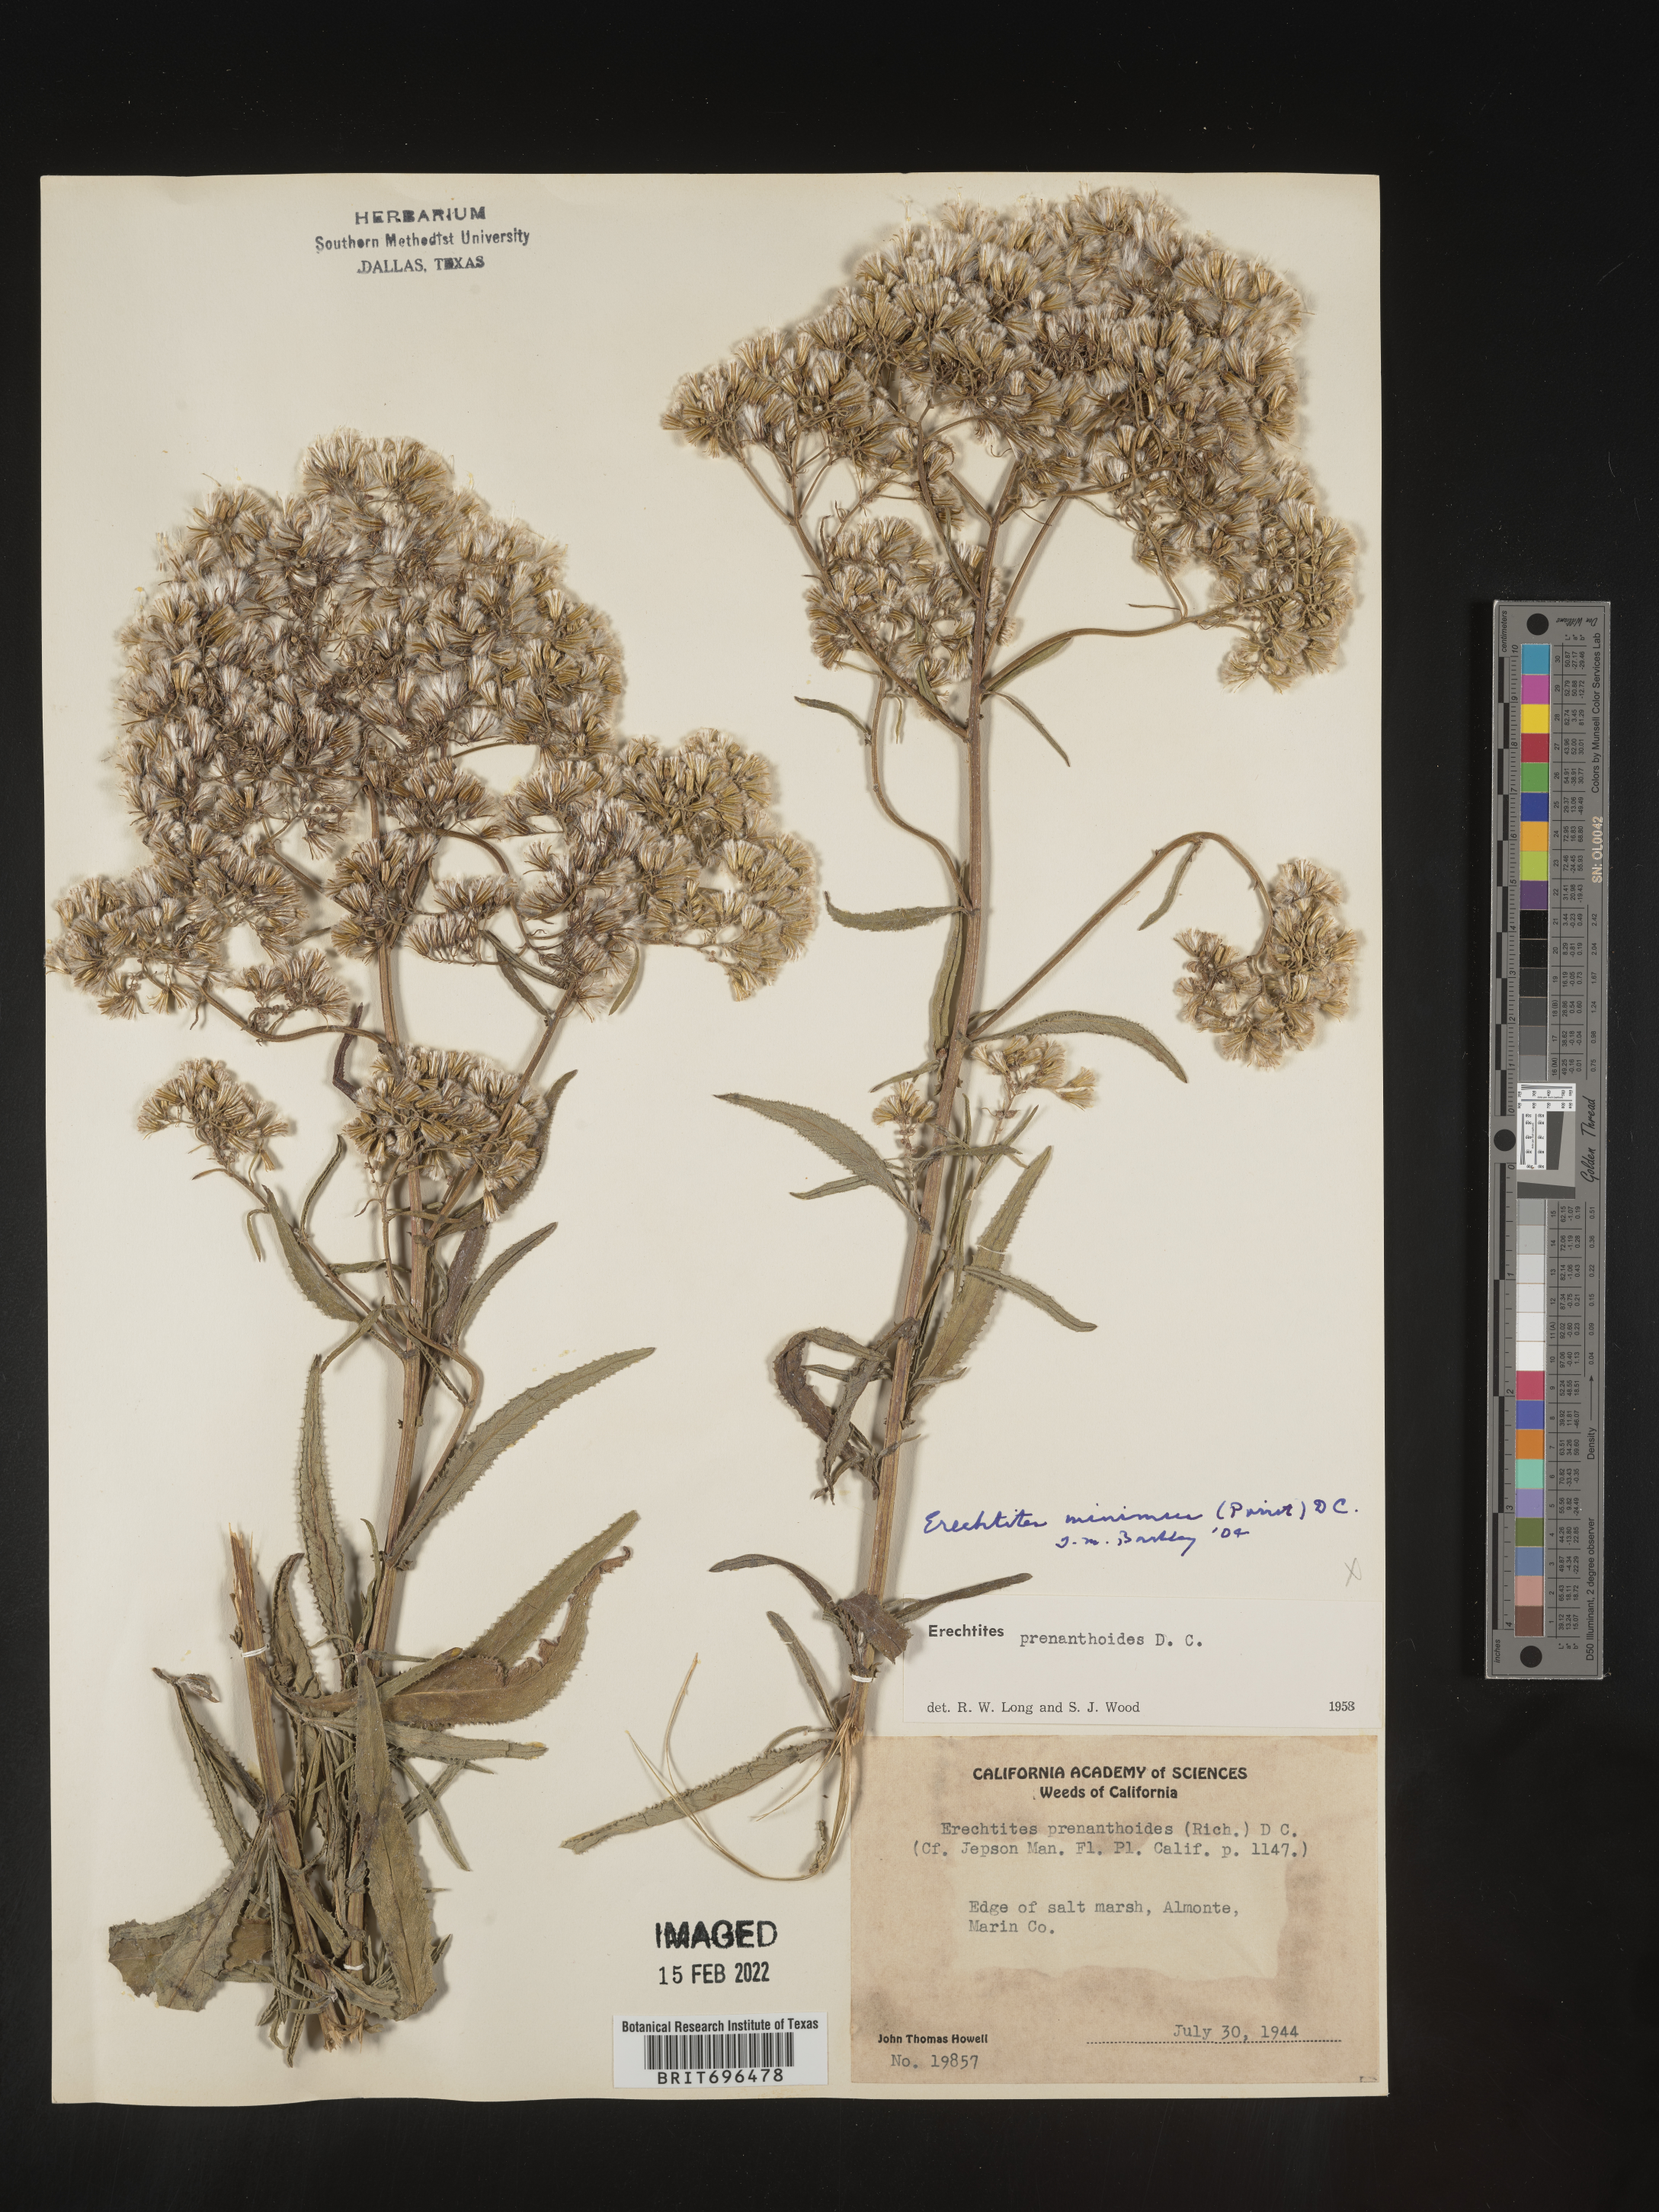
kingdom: Plantae
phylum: Tracheophyta
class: Magnoliopsida
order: Asterales
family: Asteraceae
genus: Senecio
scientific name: Senecio minimus
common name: Toothed fireweed
